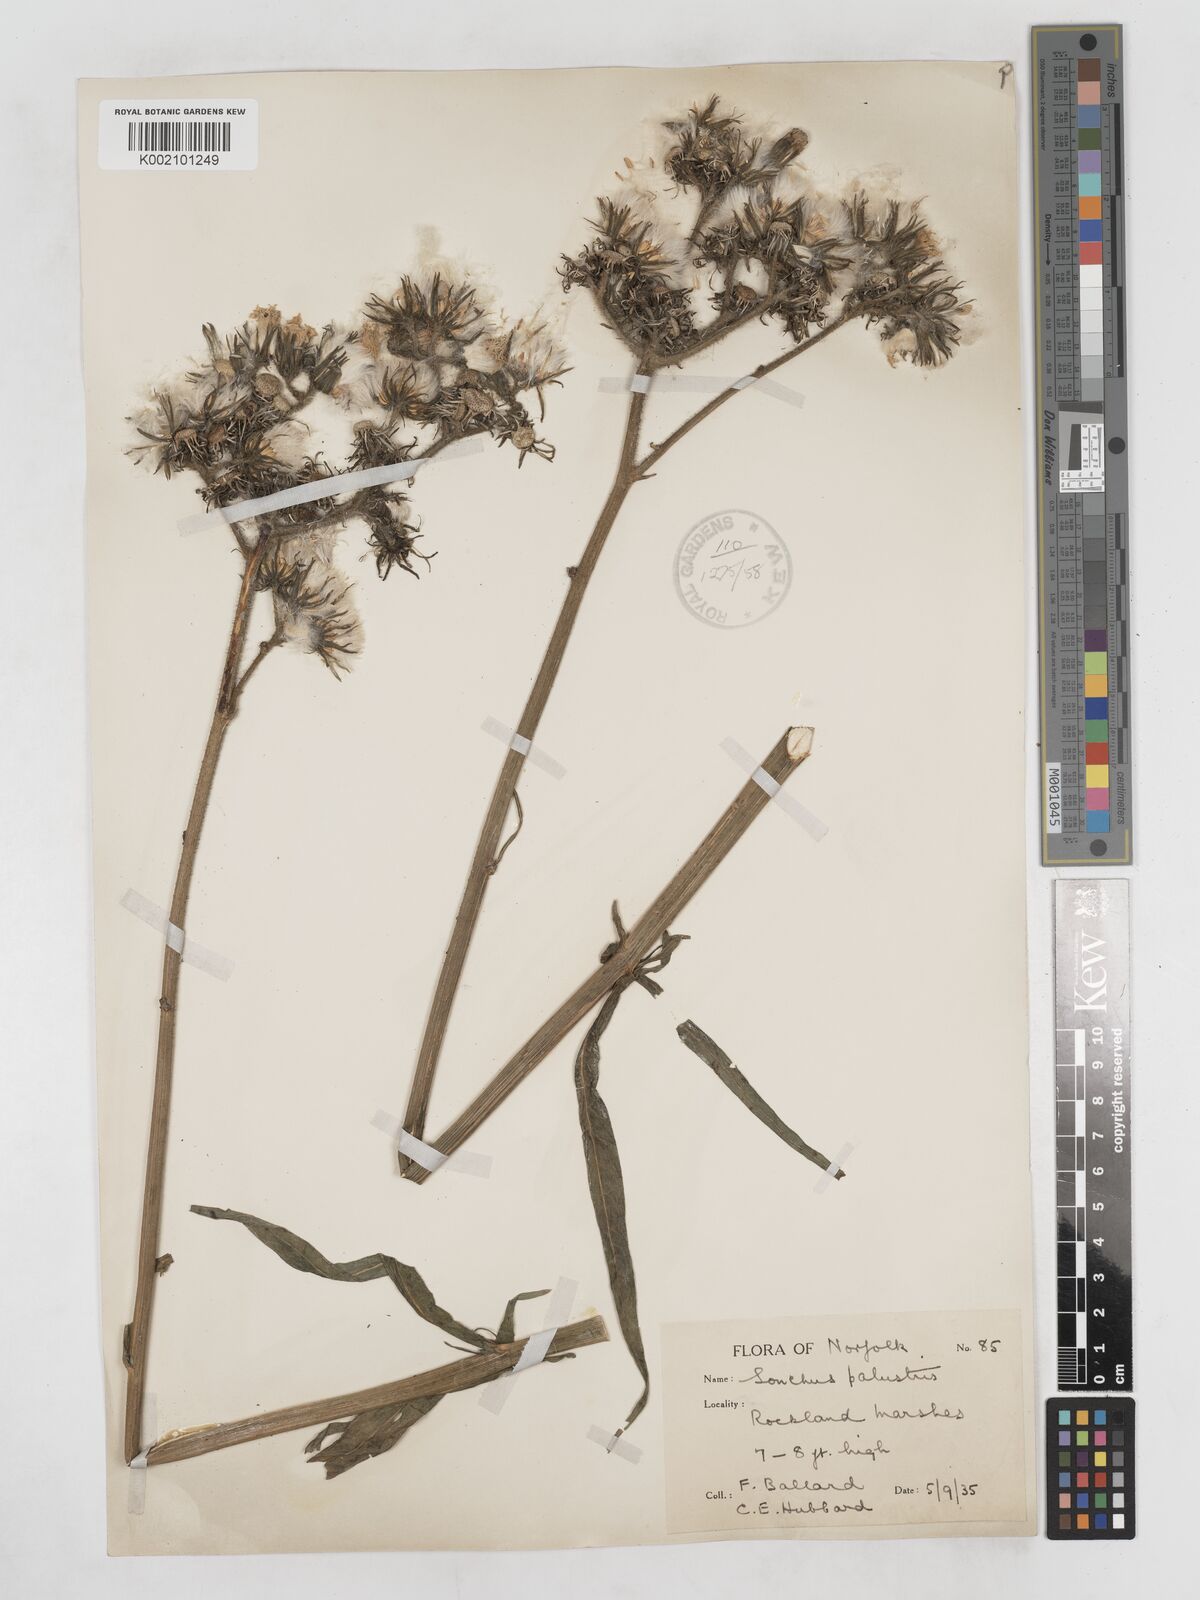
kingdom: Plantae
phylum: Tracheophyta
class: Magnoliopsida
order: Asterales
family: Asteraceae
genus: Sonchus
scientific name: Sonchus palustris
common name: Marsh sow-thistle
